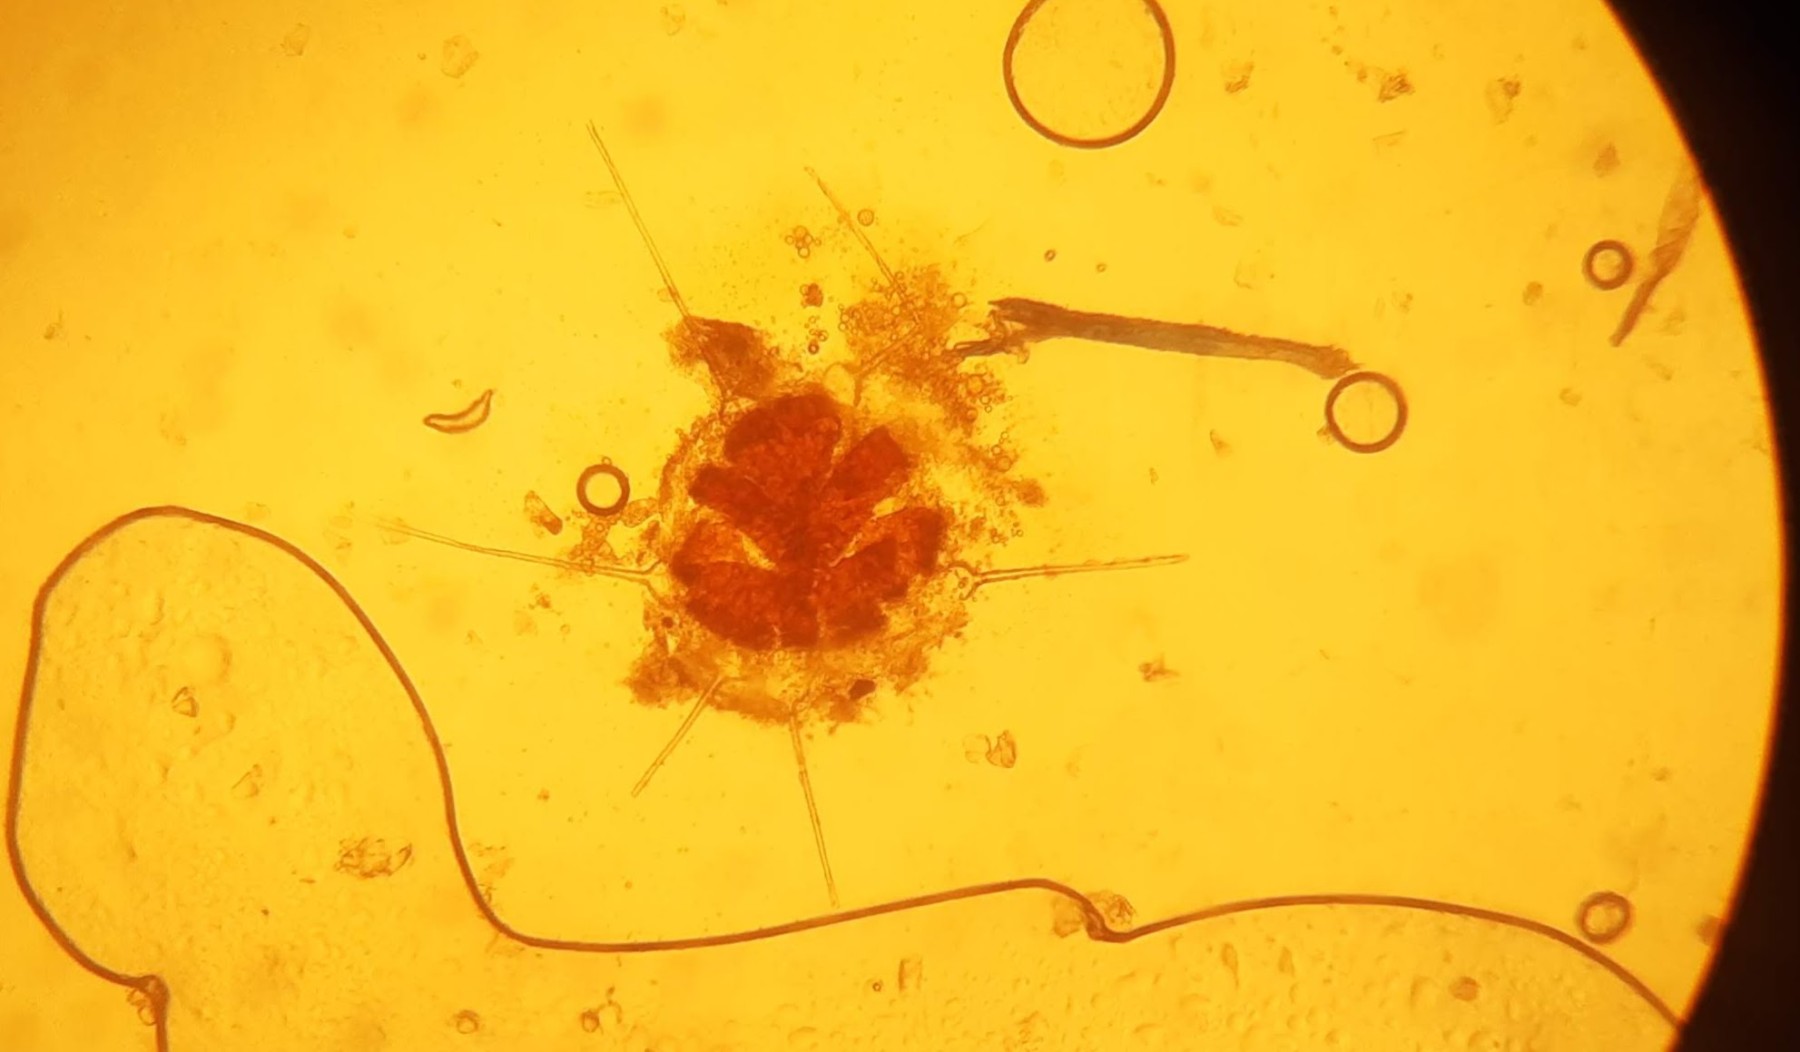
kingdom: Fungi
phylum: Ascomycota
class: Leotiomycetes
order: Helotiales
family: Erysiphaceae
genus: Phyllactinia
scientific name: Phyllactinia mali
